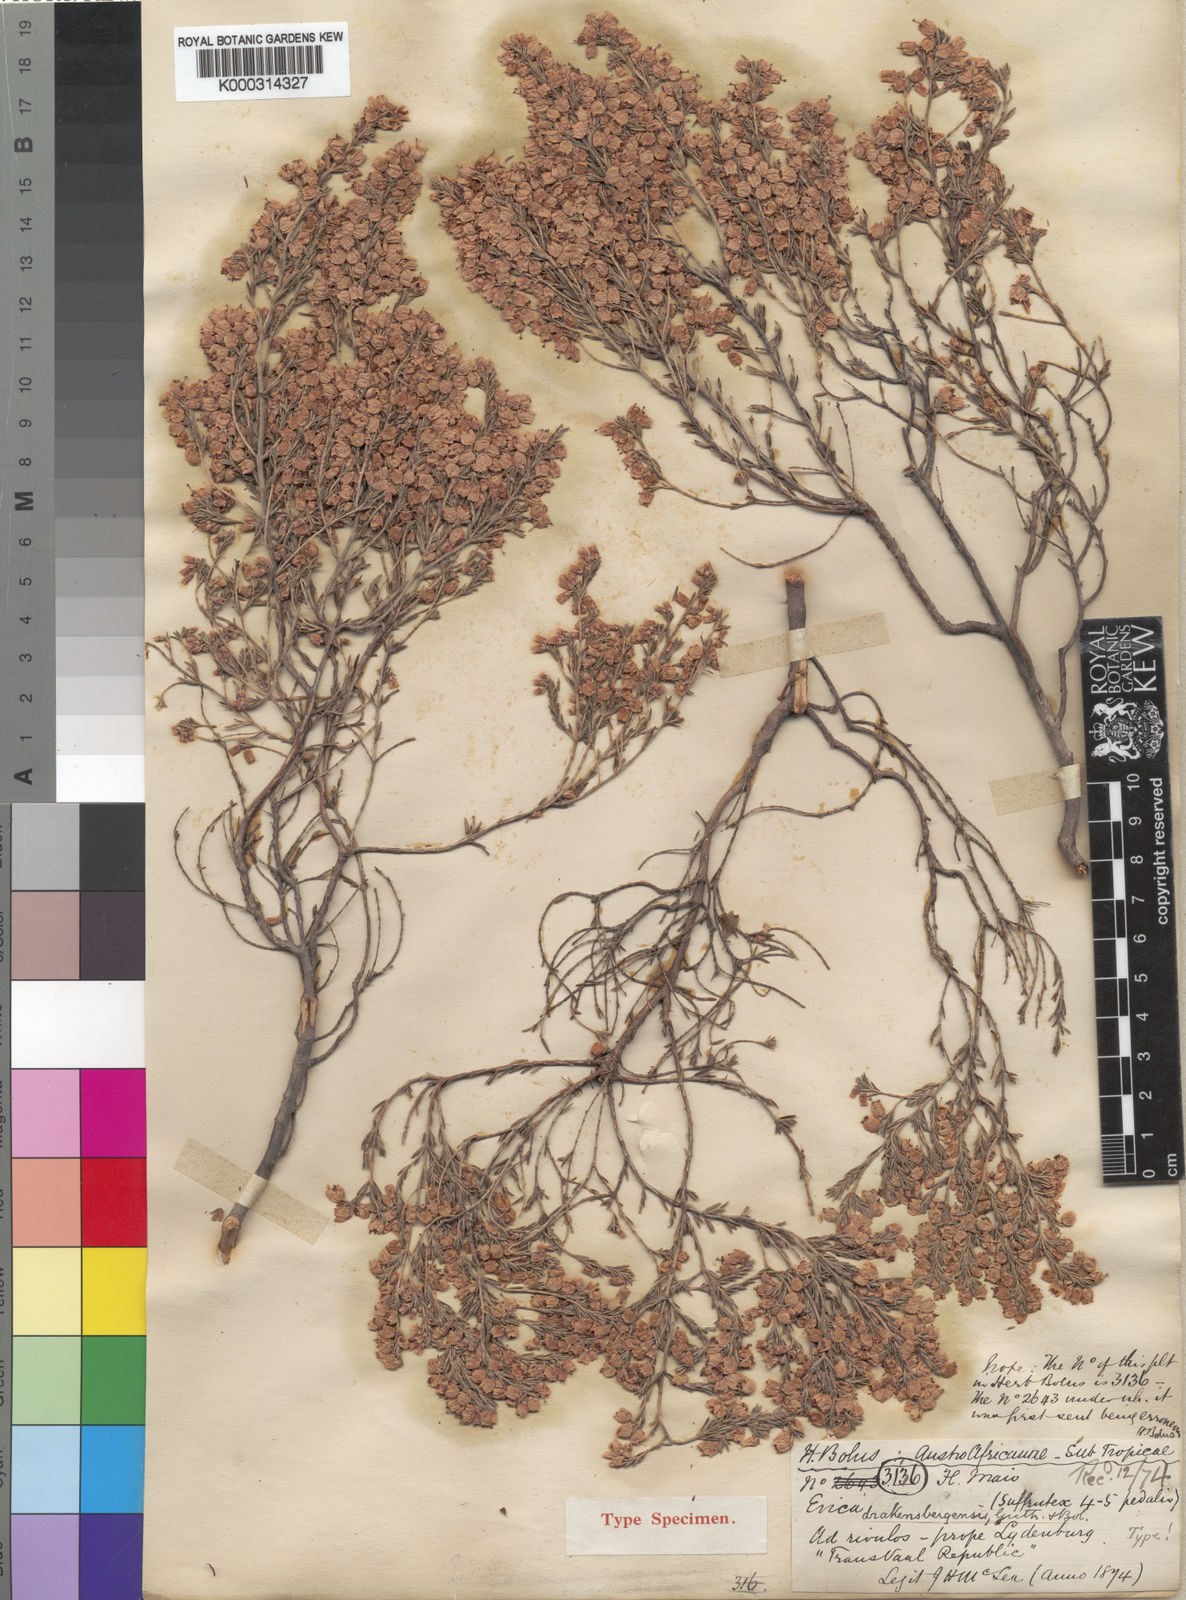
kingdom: Plantae
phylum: Tracheophyta
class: Magnoliopsida
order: Ericales
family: Ericaceae
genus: Erica
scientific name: Erica drakensbergensis
